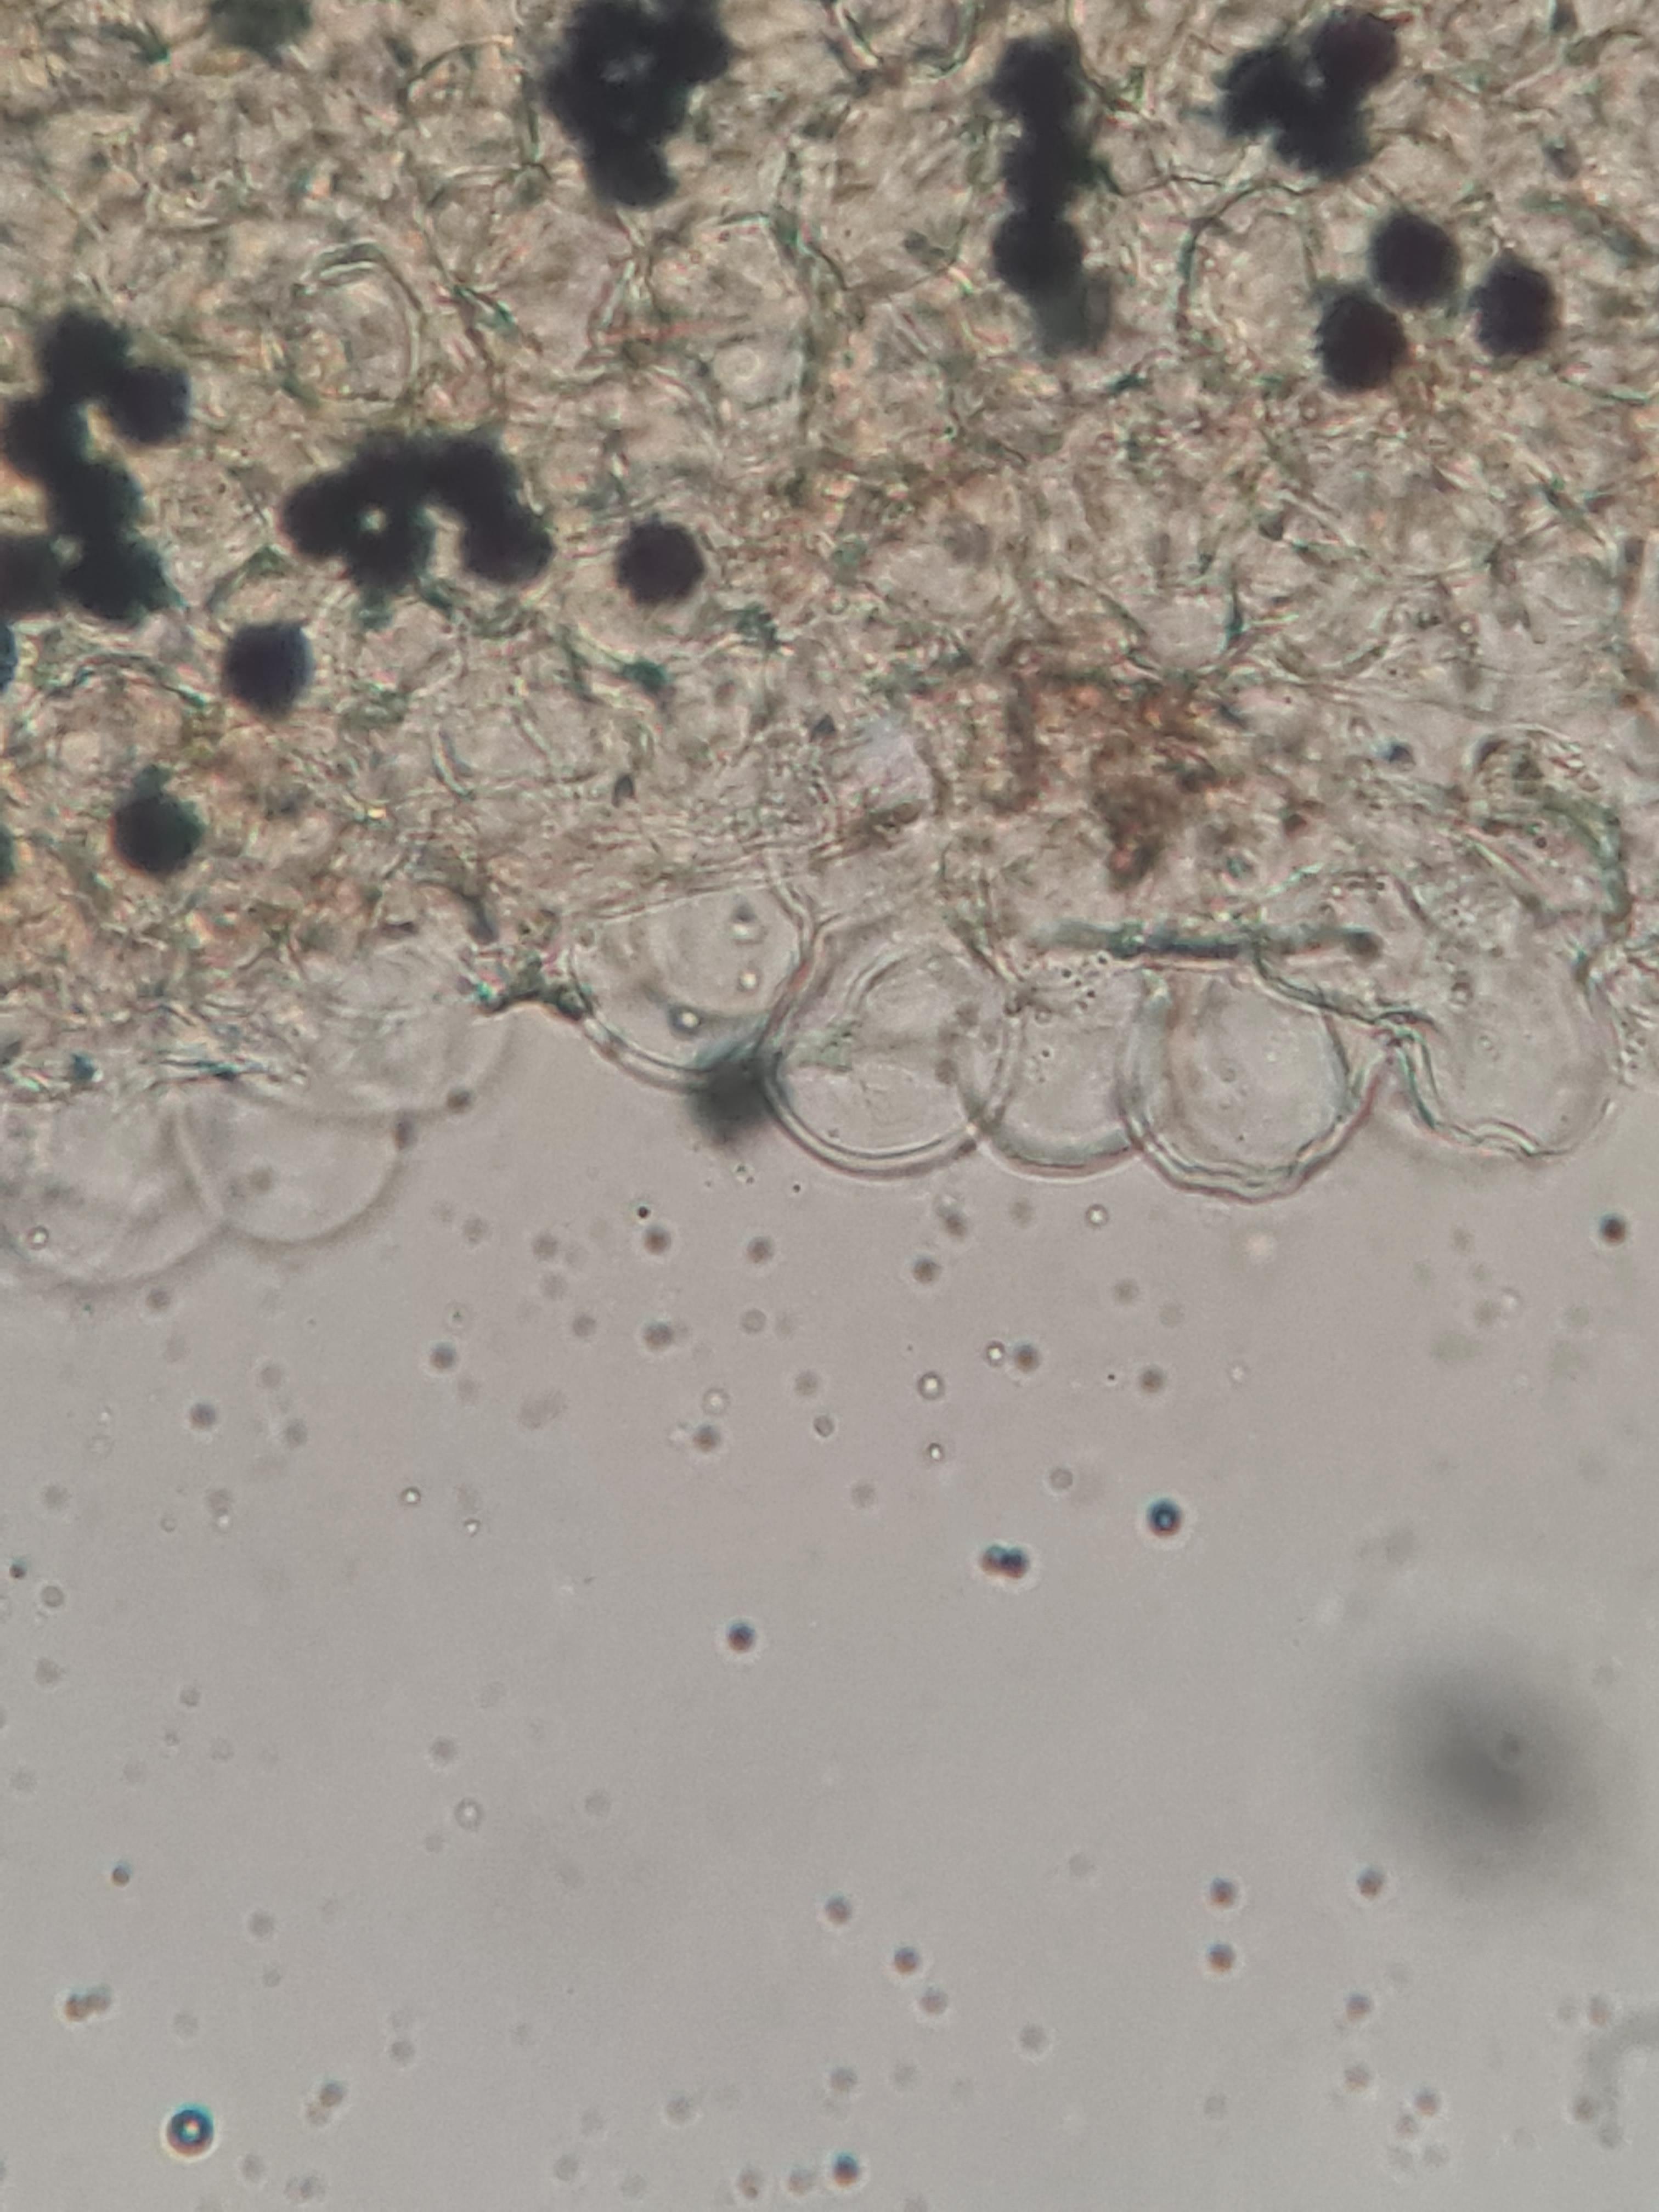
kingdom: Fungi
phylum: Basidiomycota
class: Agaricomycetes
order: Agaricales
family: Psathyrellaceae
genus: Parasola
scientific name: Parasola
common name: hjulhat
